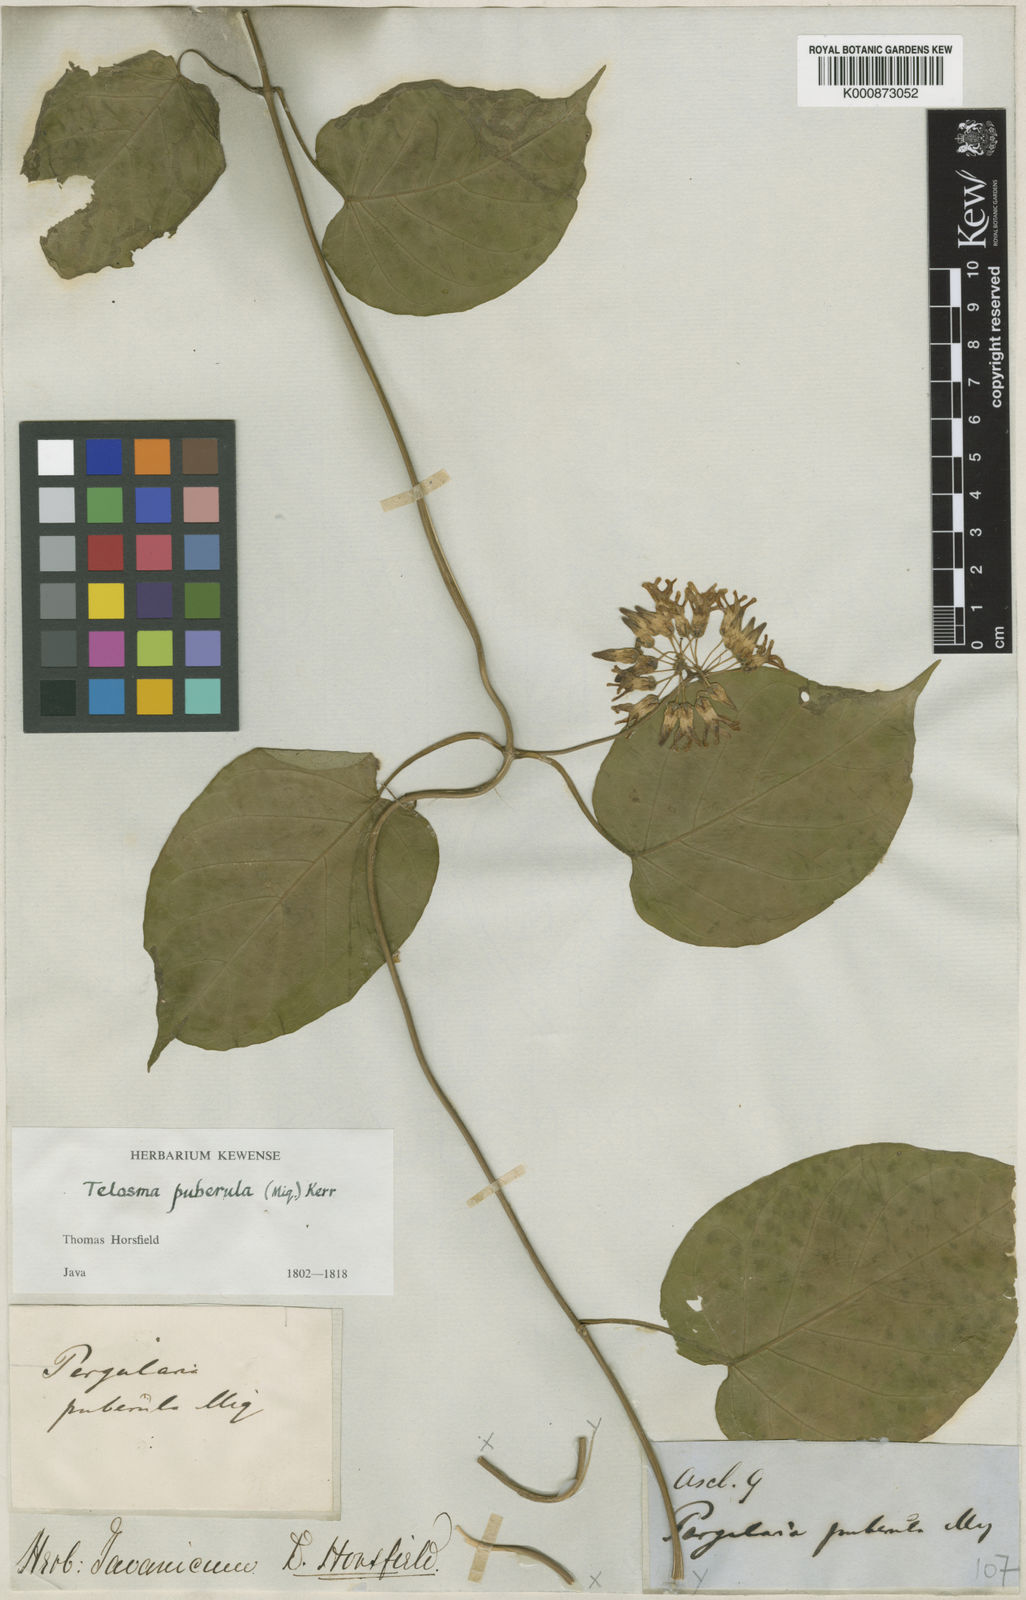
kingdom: Plantae
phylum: Tracheophyta
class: Magnoliopsida
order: Gentianales
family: Apocynaceae
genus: Telosma
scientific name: Telosma puberula
